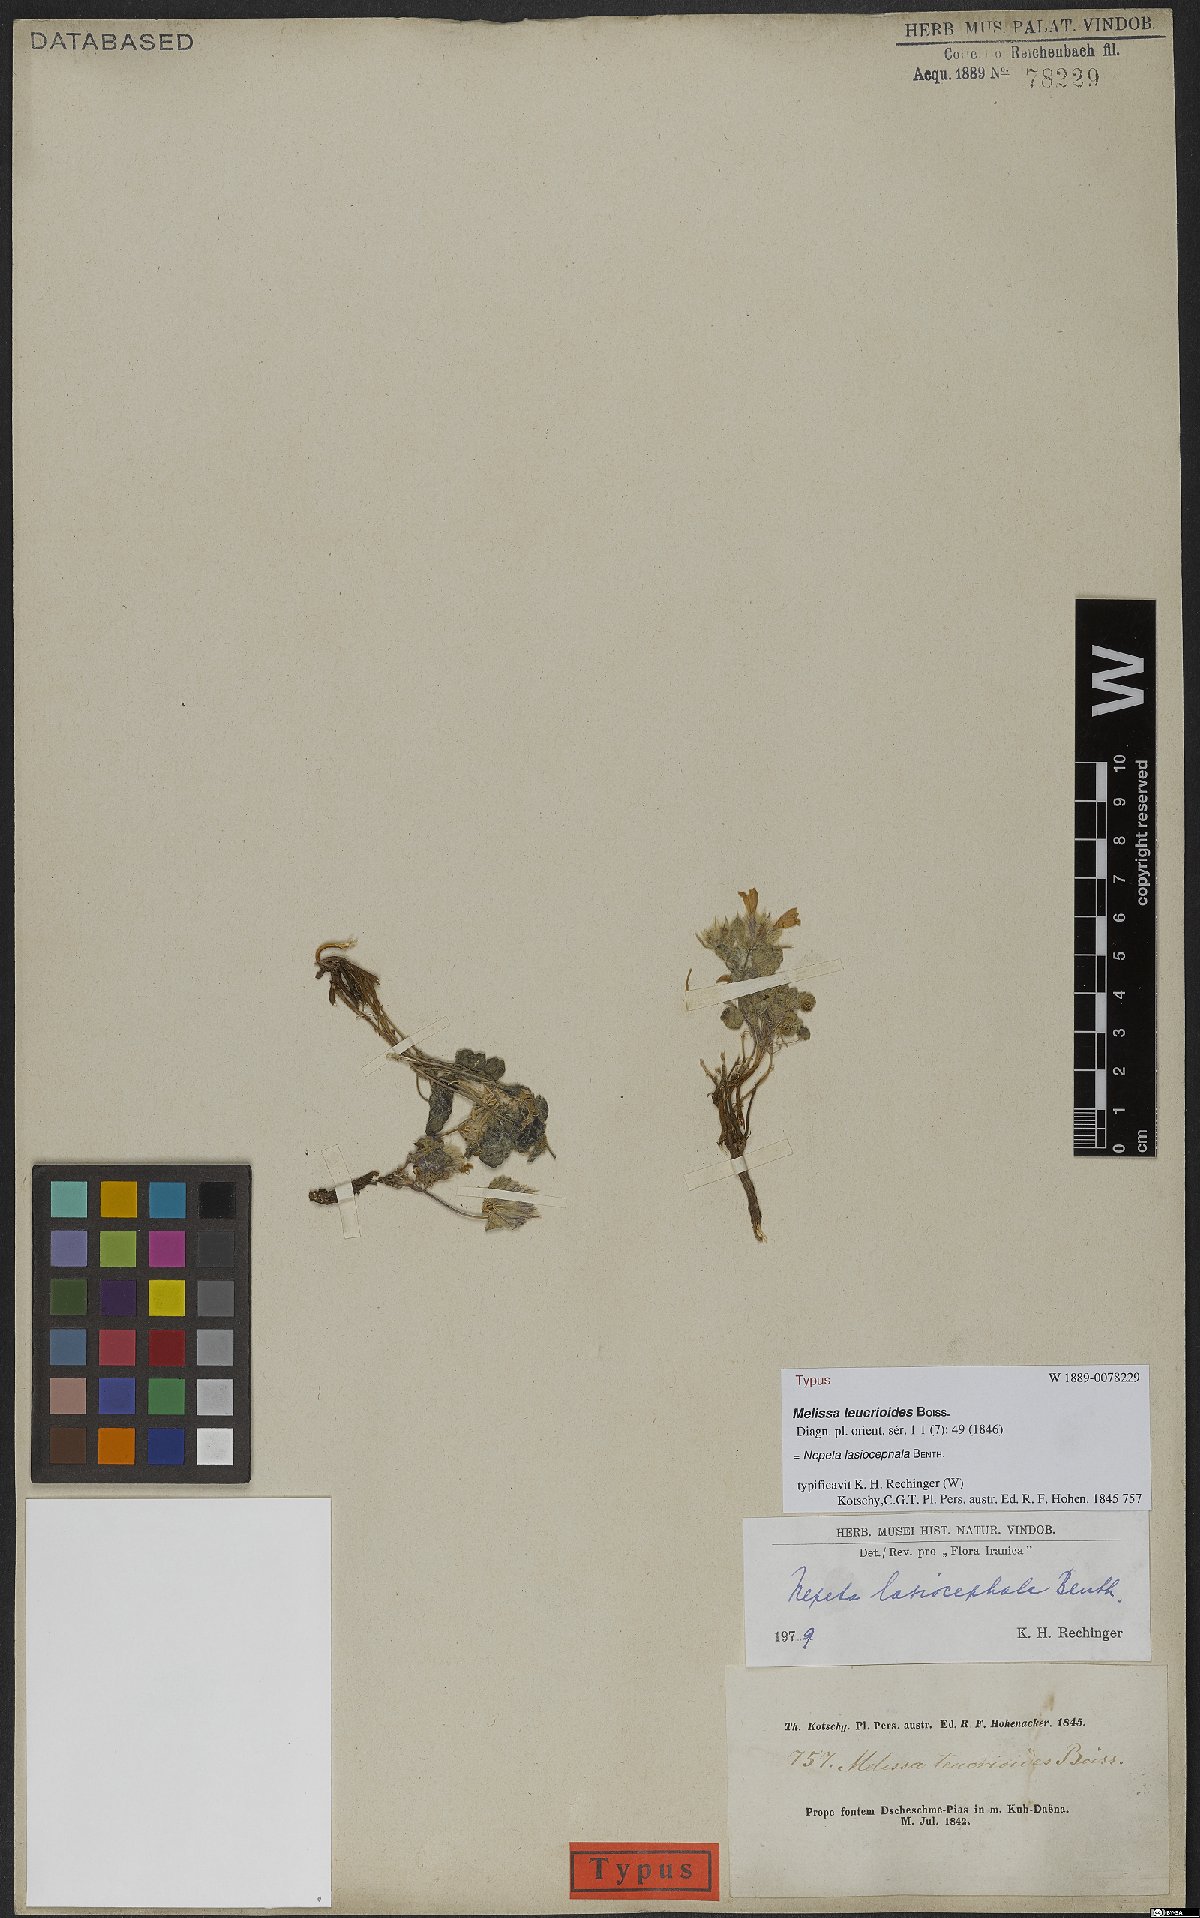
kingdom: Plantae
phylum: Tracheophyta
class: Magnoliopsida
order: Lamiales
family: Lamiaceae
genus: Nepeta
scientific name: Nepeta lasiocephala
